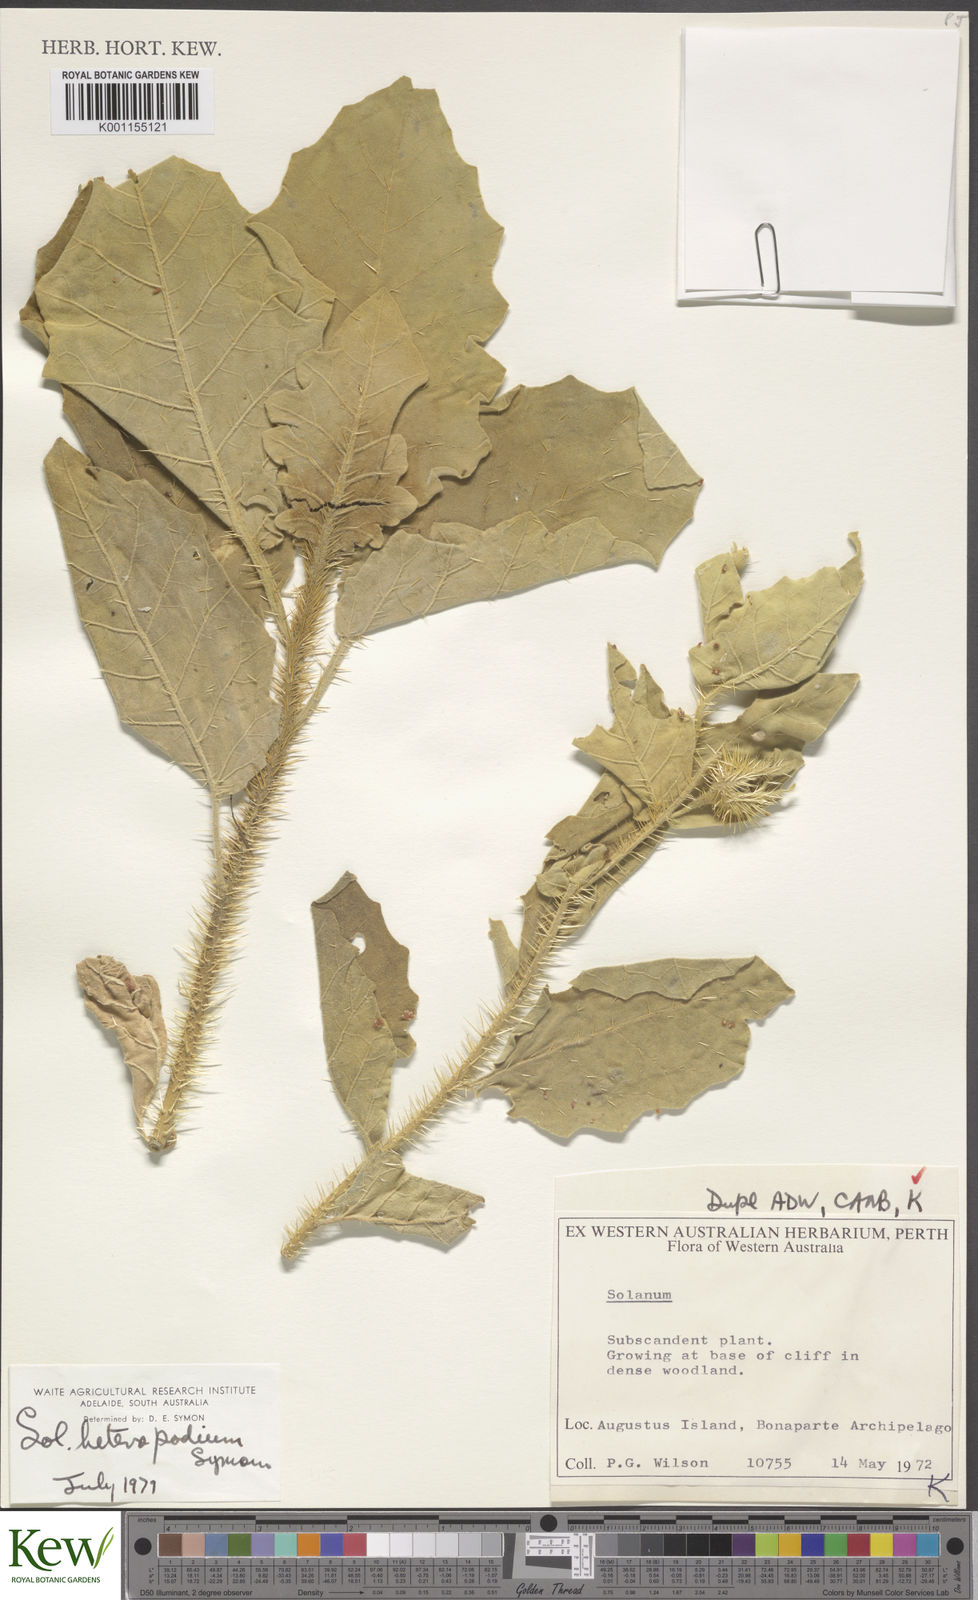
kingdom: Plantae
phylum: Tracheophyta
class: Magnoliopsida
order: Solanales
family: Solanaceae
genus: Solanum
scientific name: Solanum heteropodium
